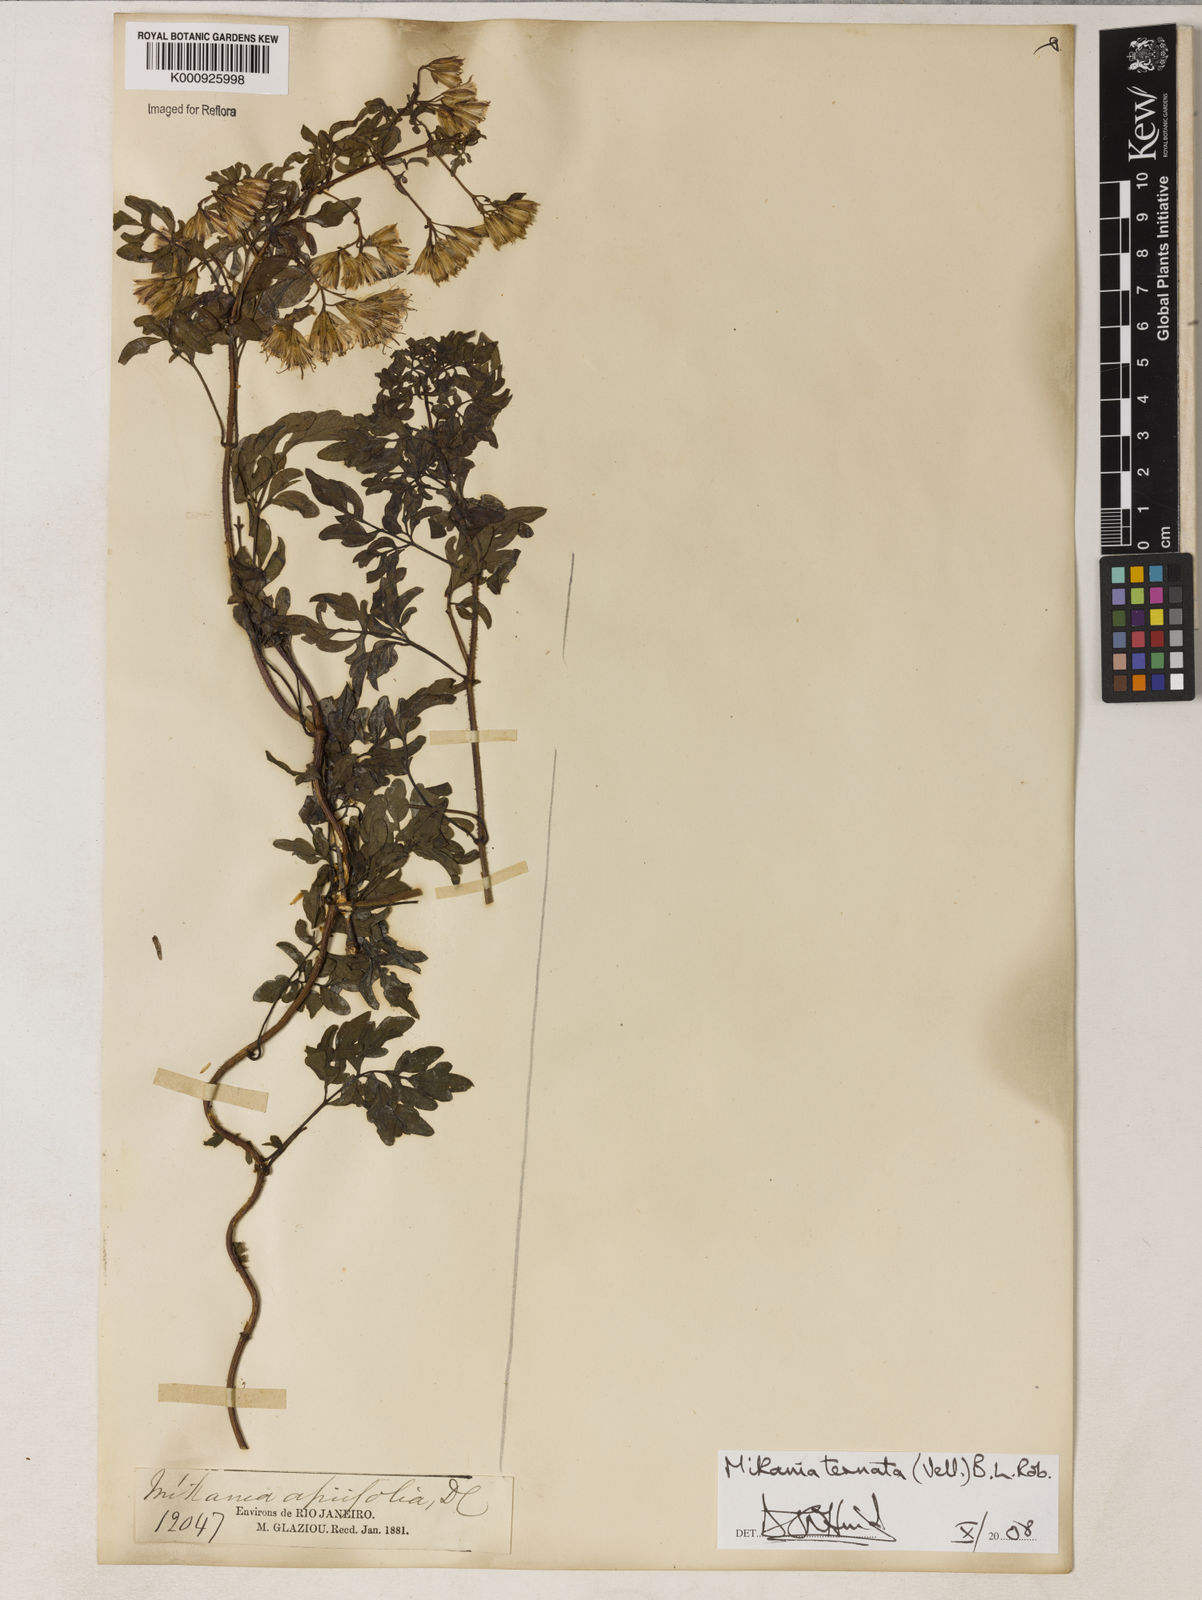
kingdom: Plantae
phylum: Tracheophyta
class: Magnoliopsida
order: Asterales
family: Asteraceae
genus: Mikania
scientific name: Mikania ternata
